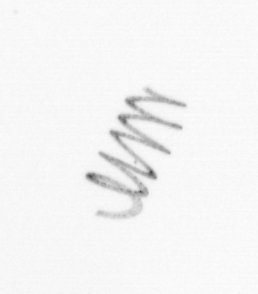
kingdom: Chromista
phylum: Ochrophyta
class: Bacillariophyceae
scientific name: Bacillariophyceae
